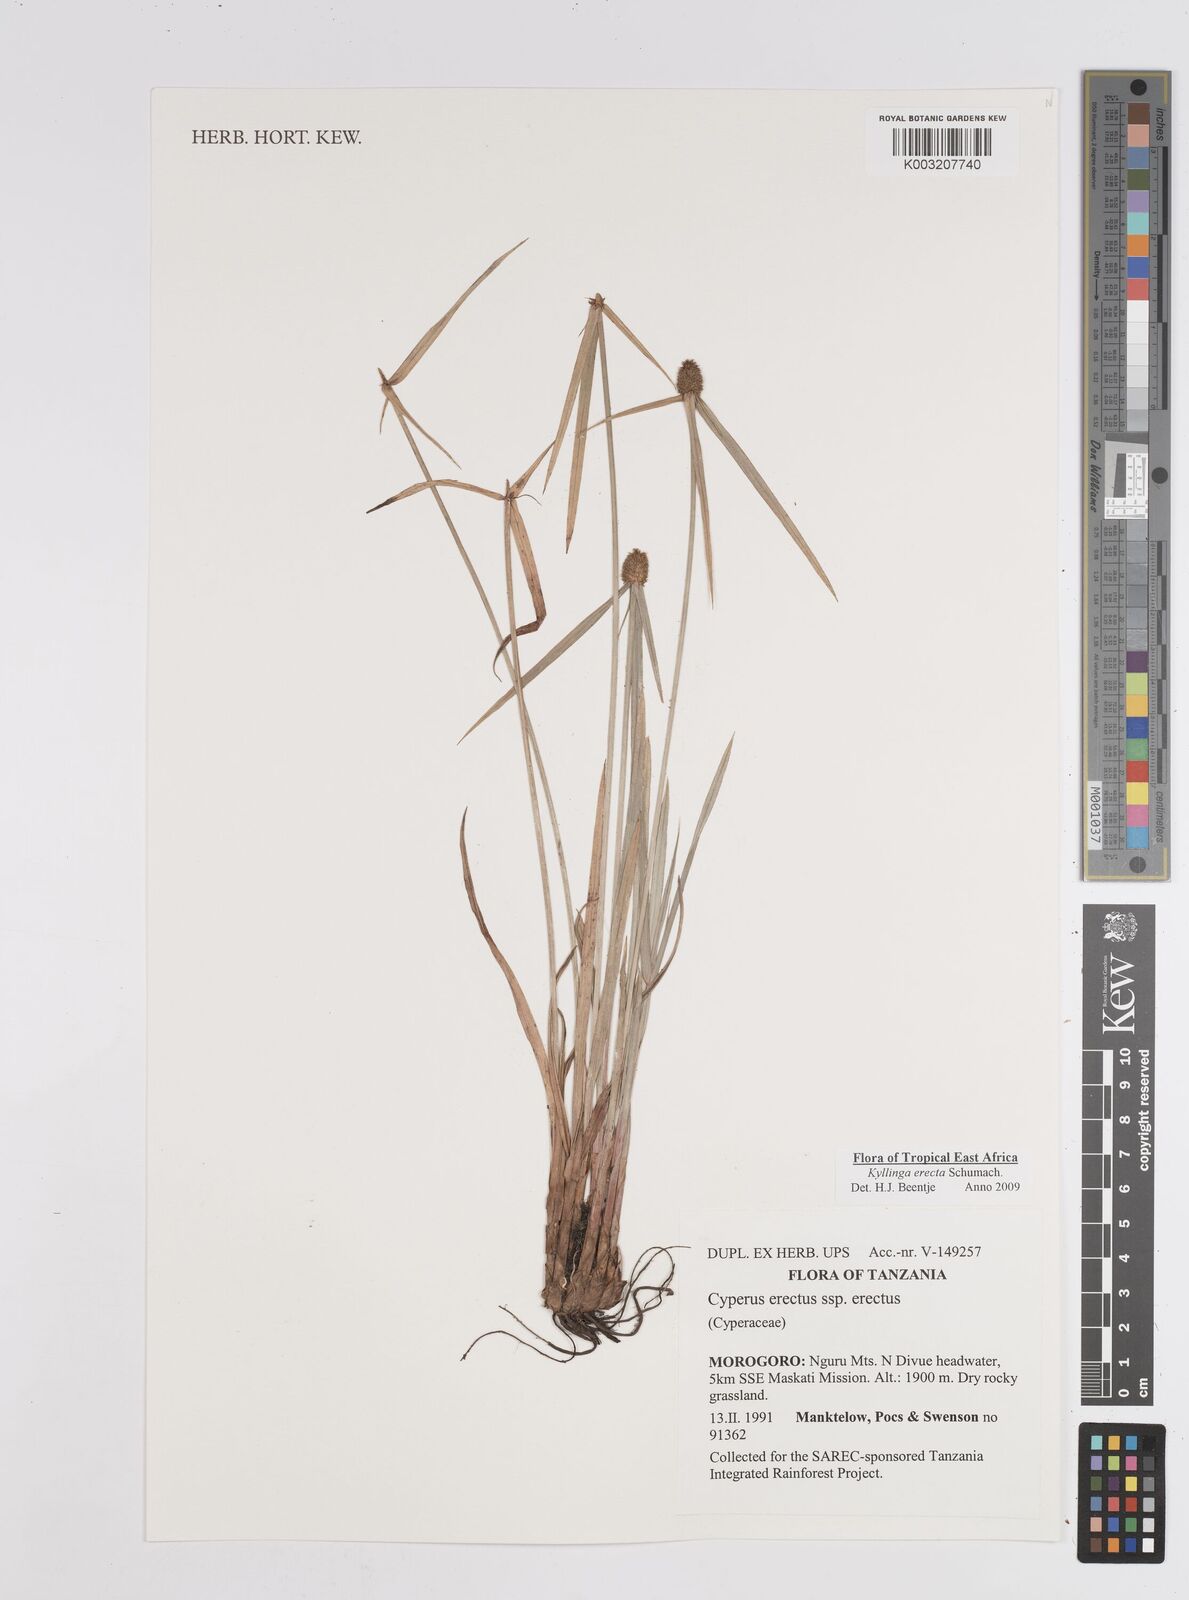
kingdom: Plantae
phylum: Tracheophyta
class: Liliopsida
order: Poales
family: Cyperaceae
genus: Cyperus
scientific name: Cyperus erectus
